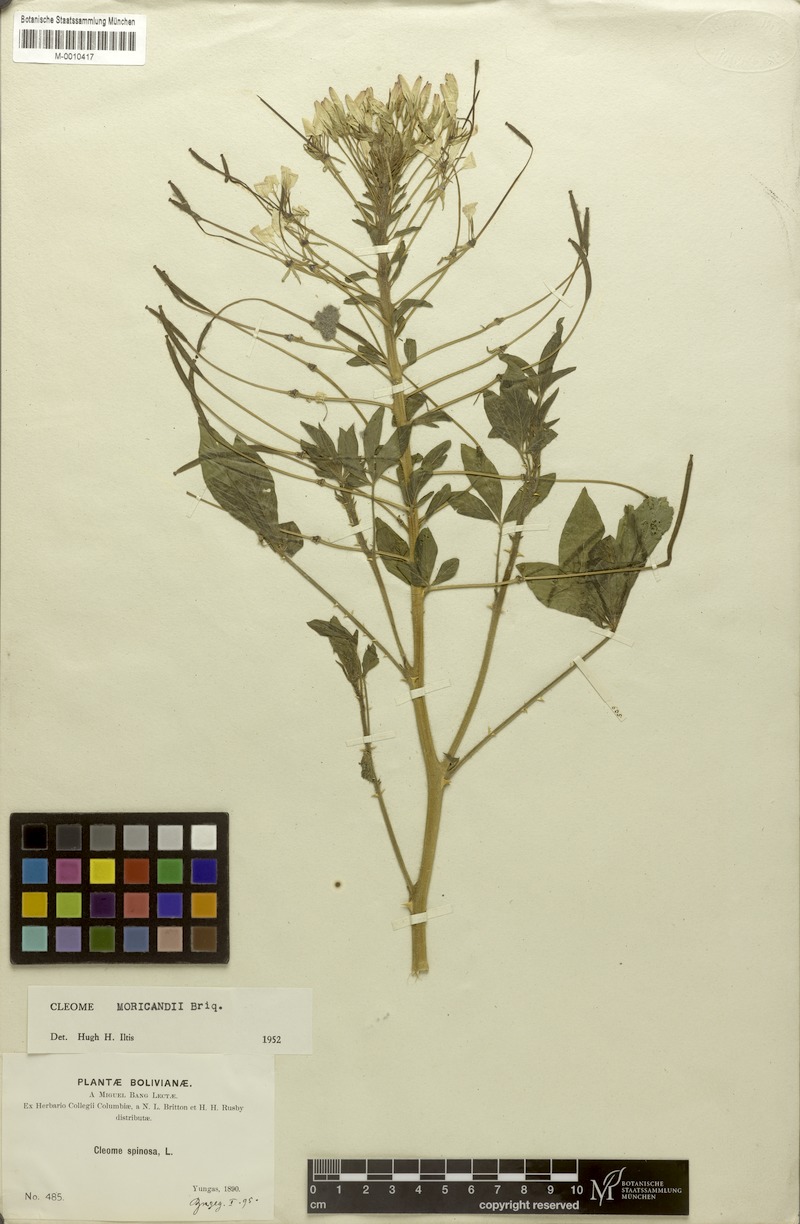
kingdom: Plantae
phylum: Tracheophyta
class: Magnoliopsida
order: Brassicales
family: Cleomaceae
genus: Tarenaya
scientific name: Tarenaya boliviensis
